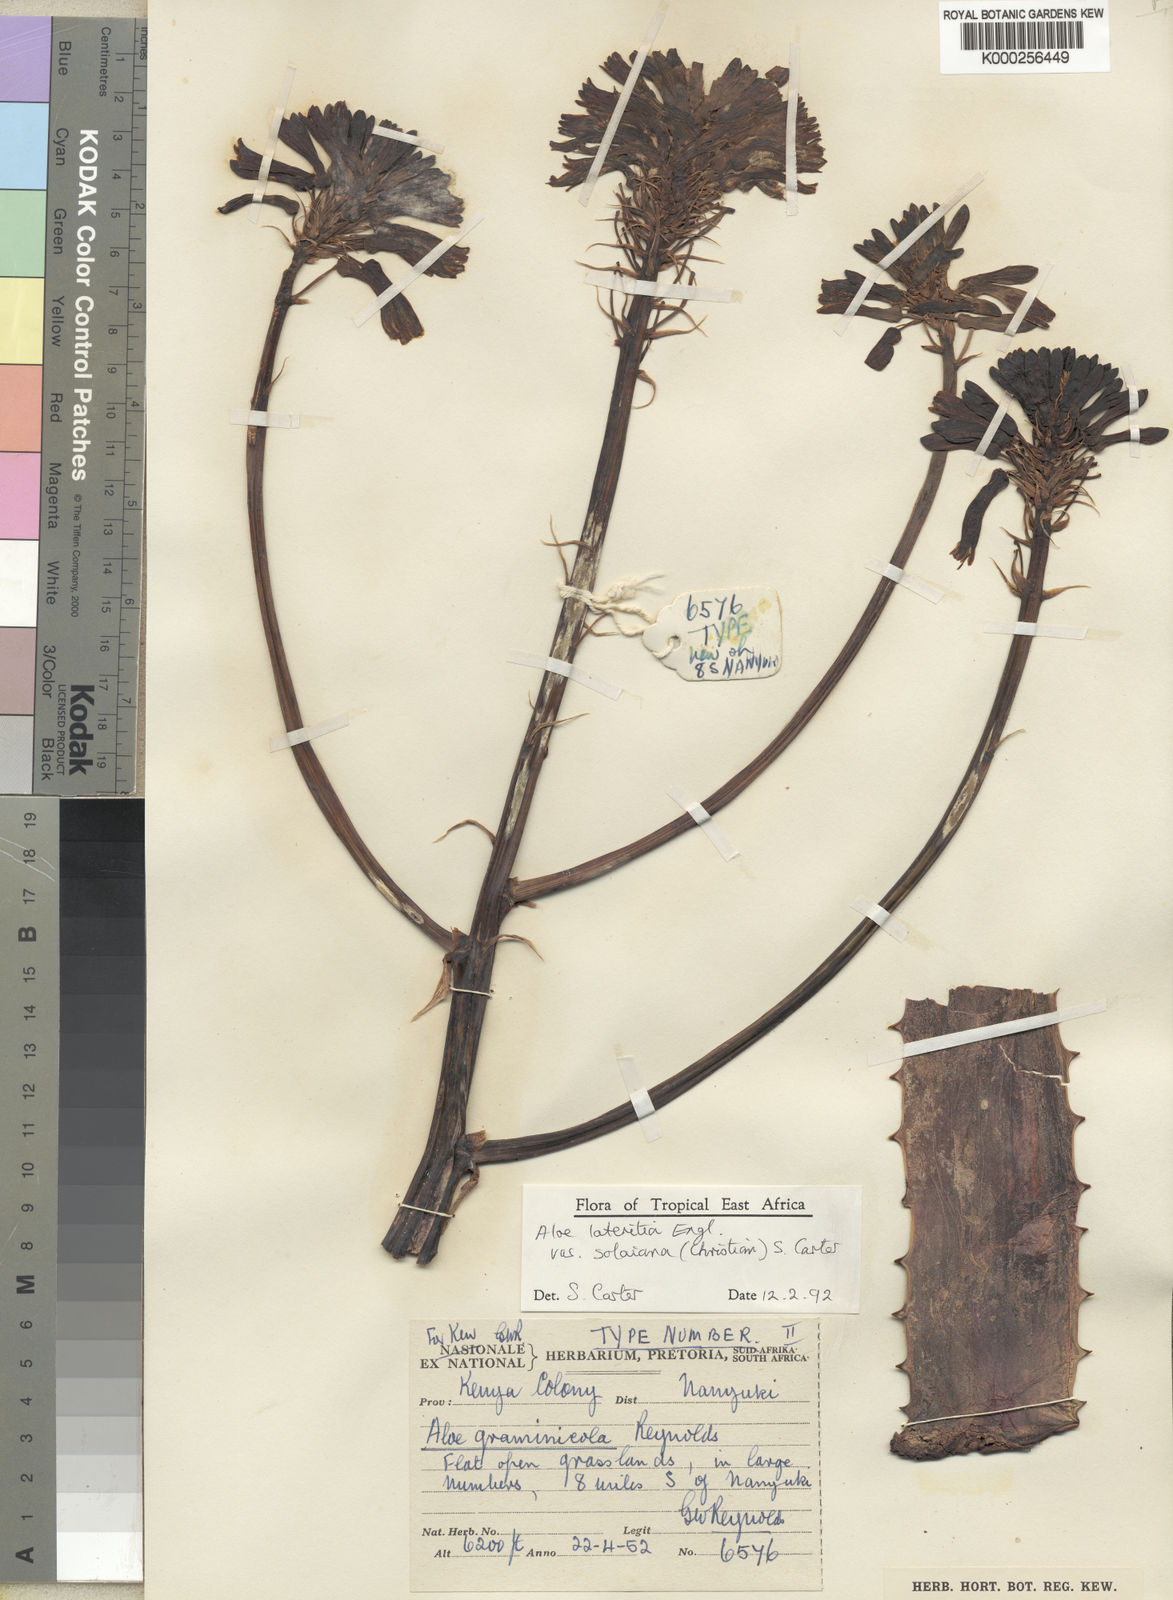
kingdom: Plantae
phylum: Tracheophyta
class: Liliopsida
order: Asparagales
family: Asphodelaceae
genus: Aloe
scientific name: Aloe lateritia
